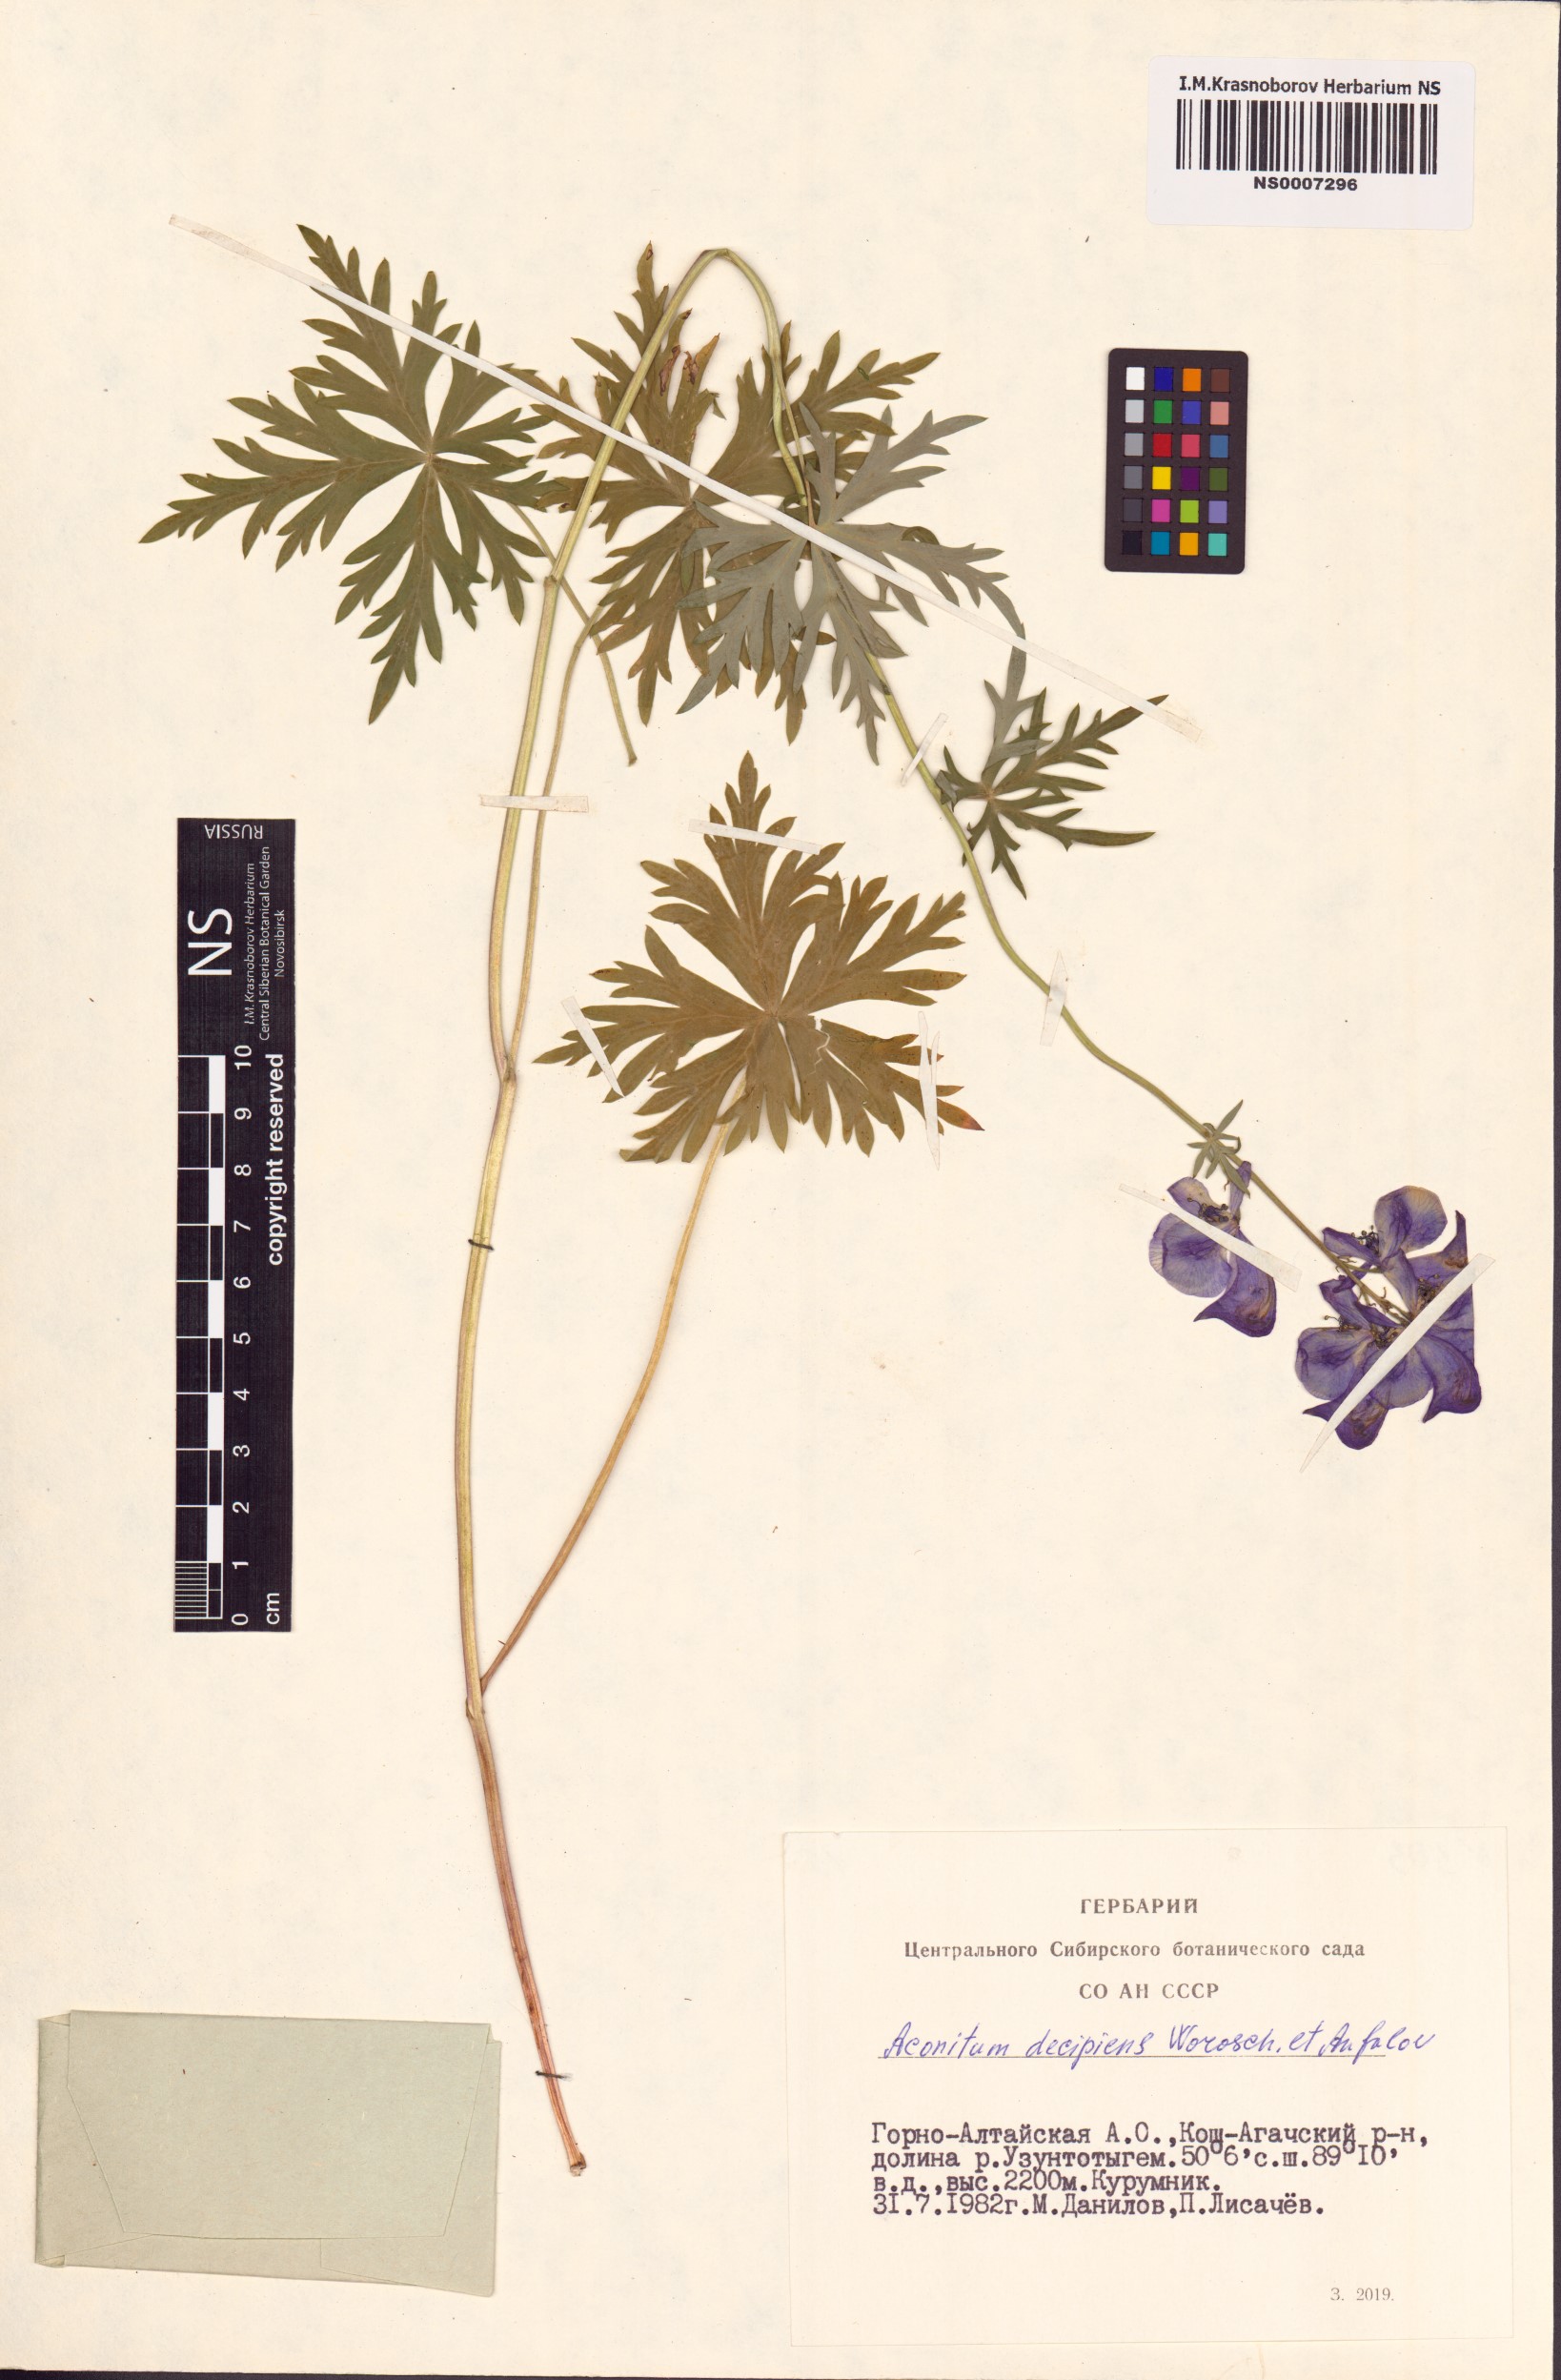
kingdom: Plantae
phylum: Tracheophyta
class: Magnoliopsida
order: Ranunculales
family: Ranunculaceae
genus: Aconitum
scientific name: Aconitum decipiens
